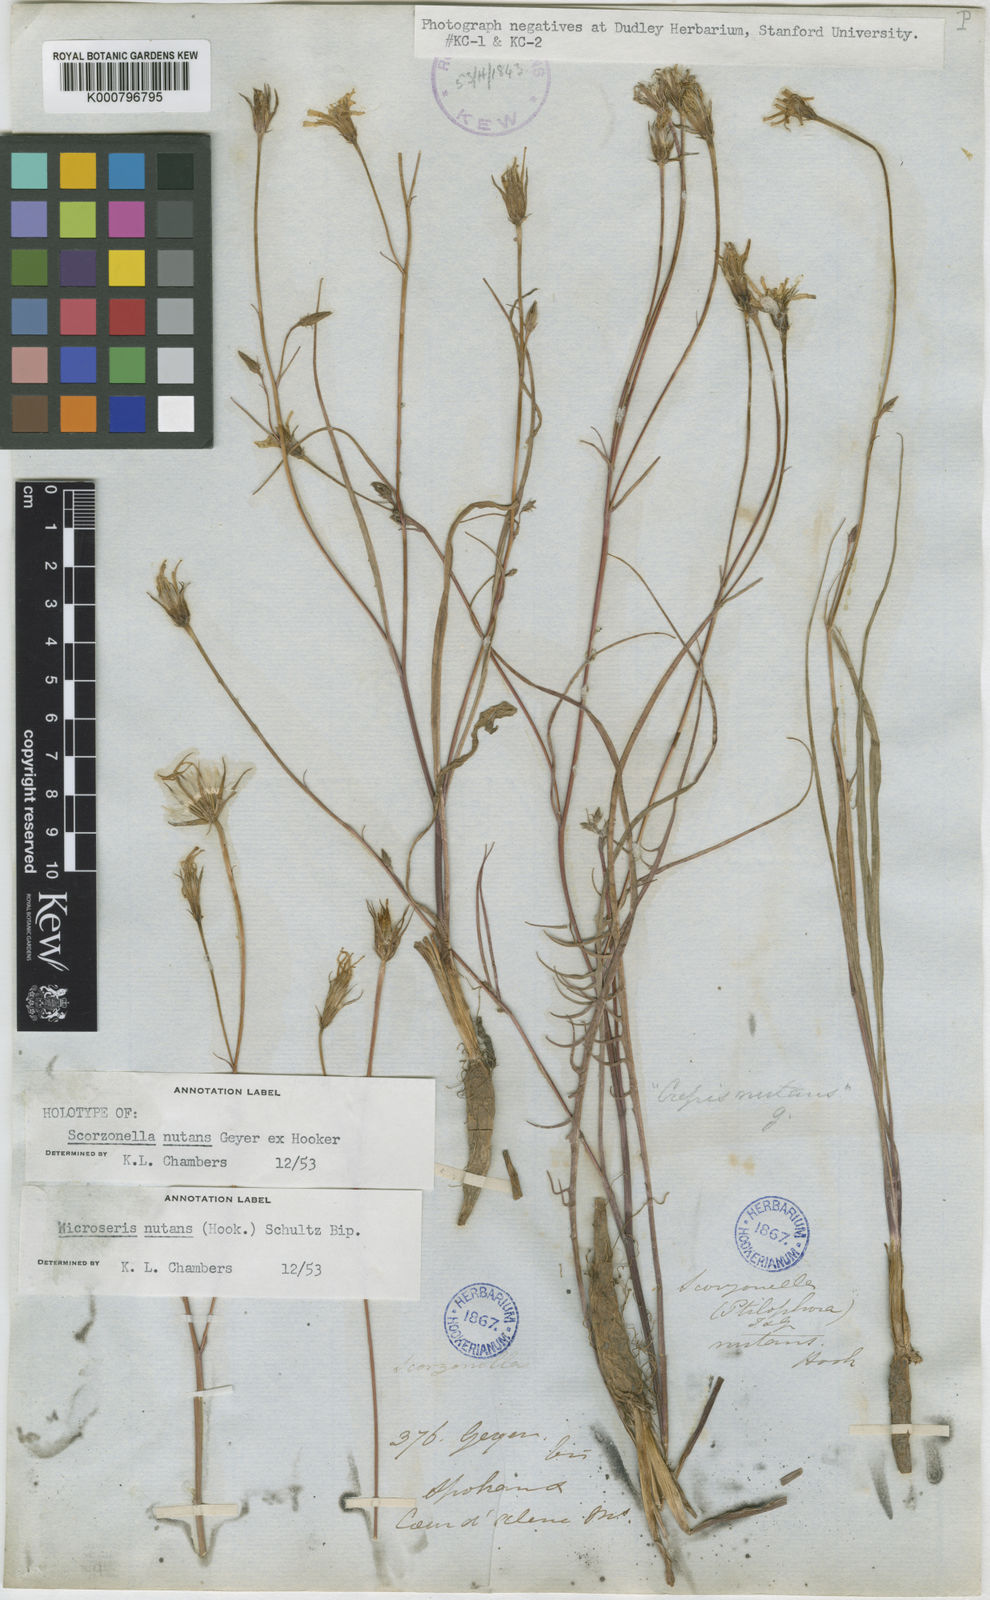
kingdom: Plantae
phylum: Tracheophyta
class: Magnoliopsida
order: Asterales
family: Asteraceae
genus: Microseris
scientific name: Microseris nutans
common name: Nodding microseris
